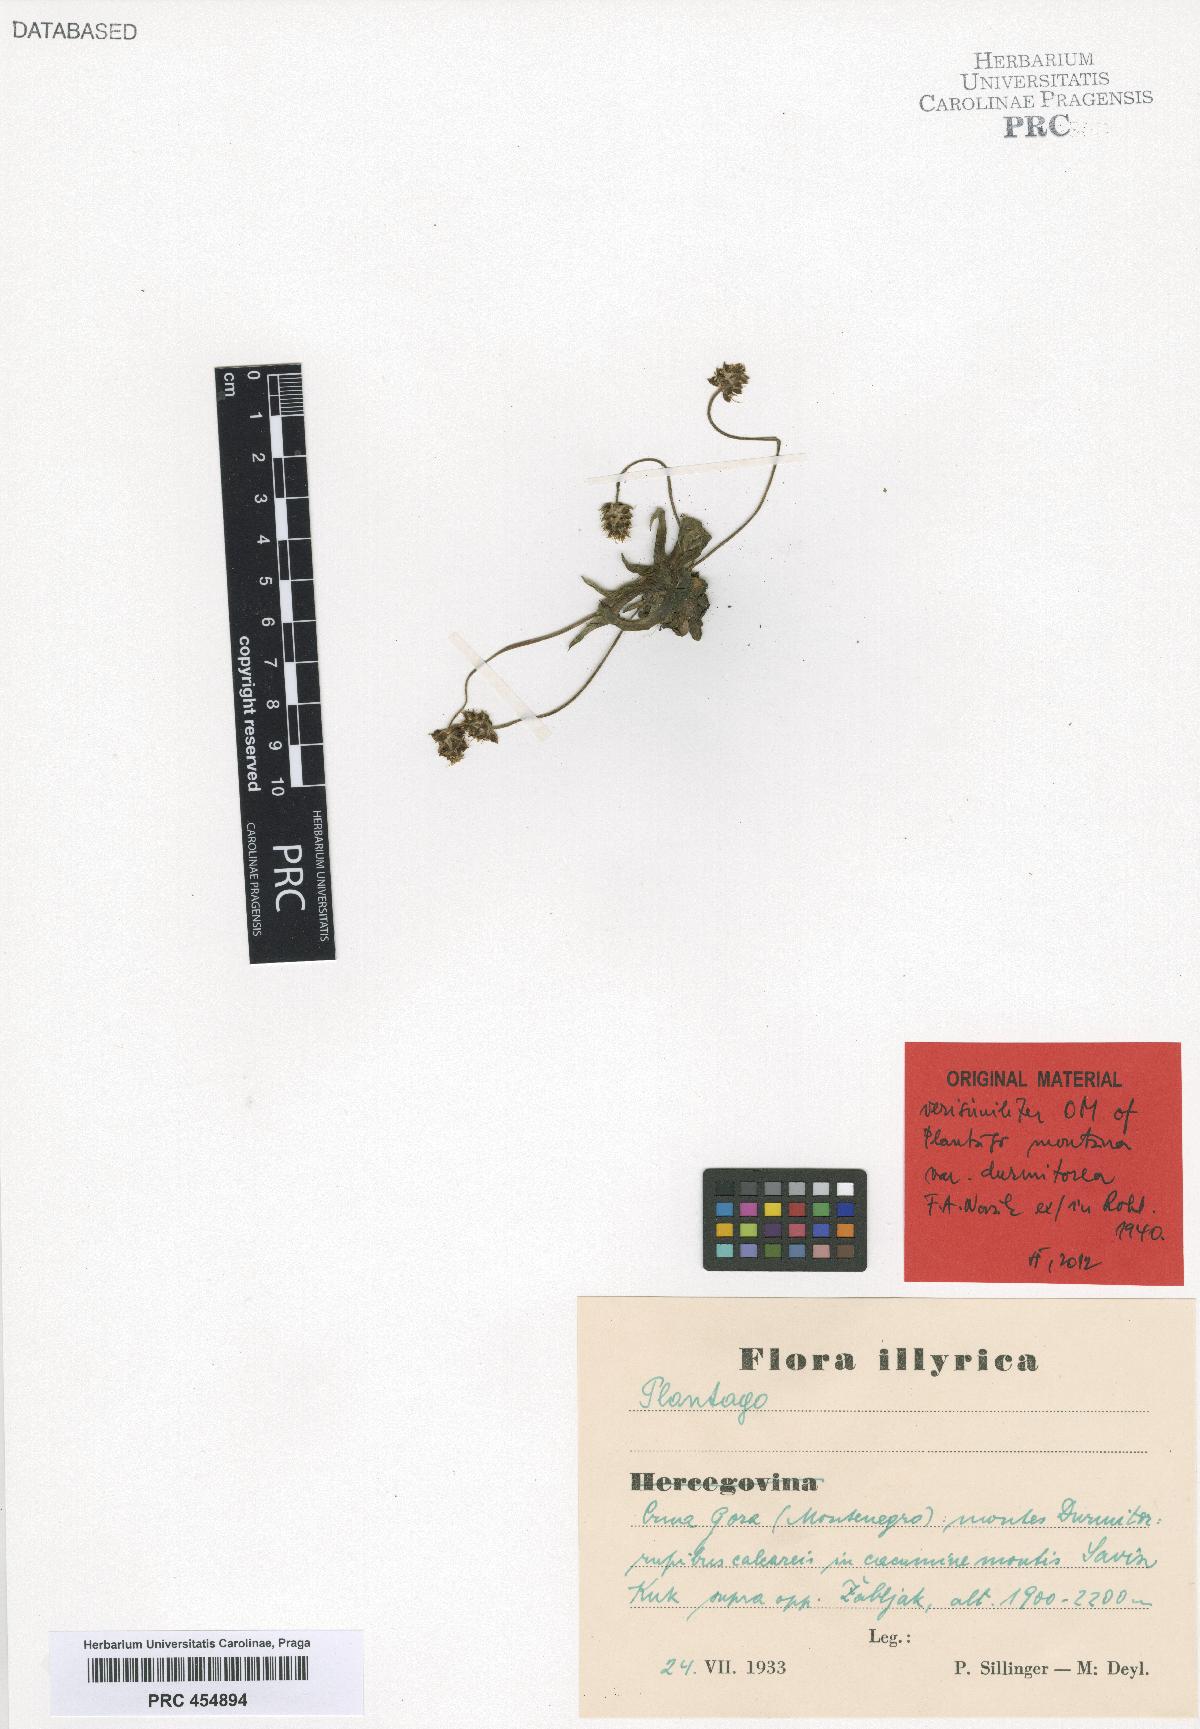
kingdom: Plantae
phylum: Tracheophyta
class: Magnoliopsida
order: Lamiales
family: Plantaginaceae
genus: Plantago
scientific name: Plantago
